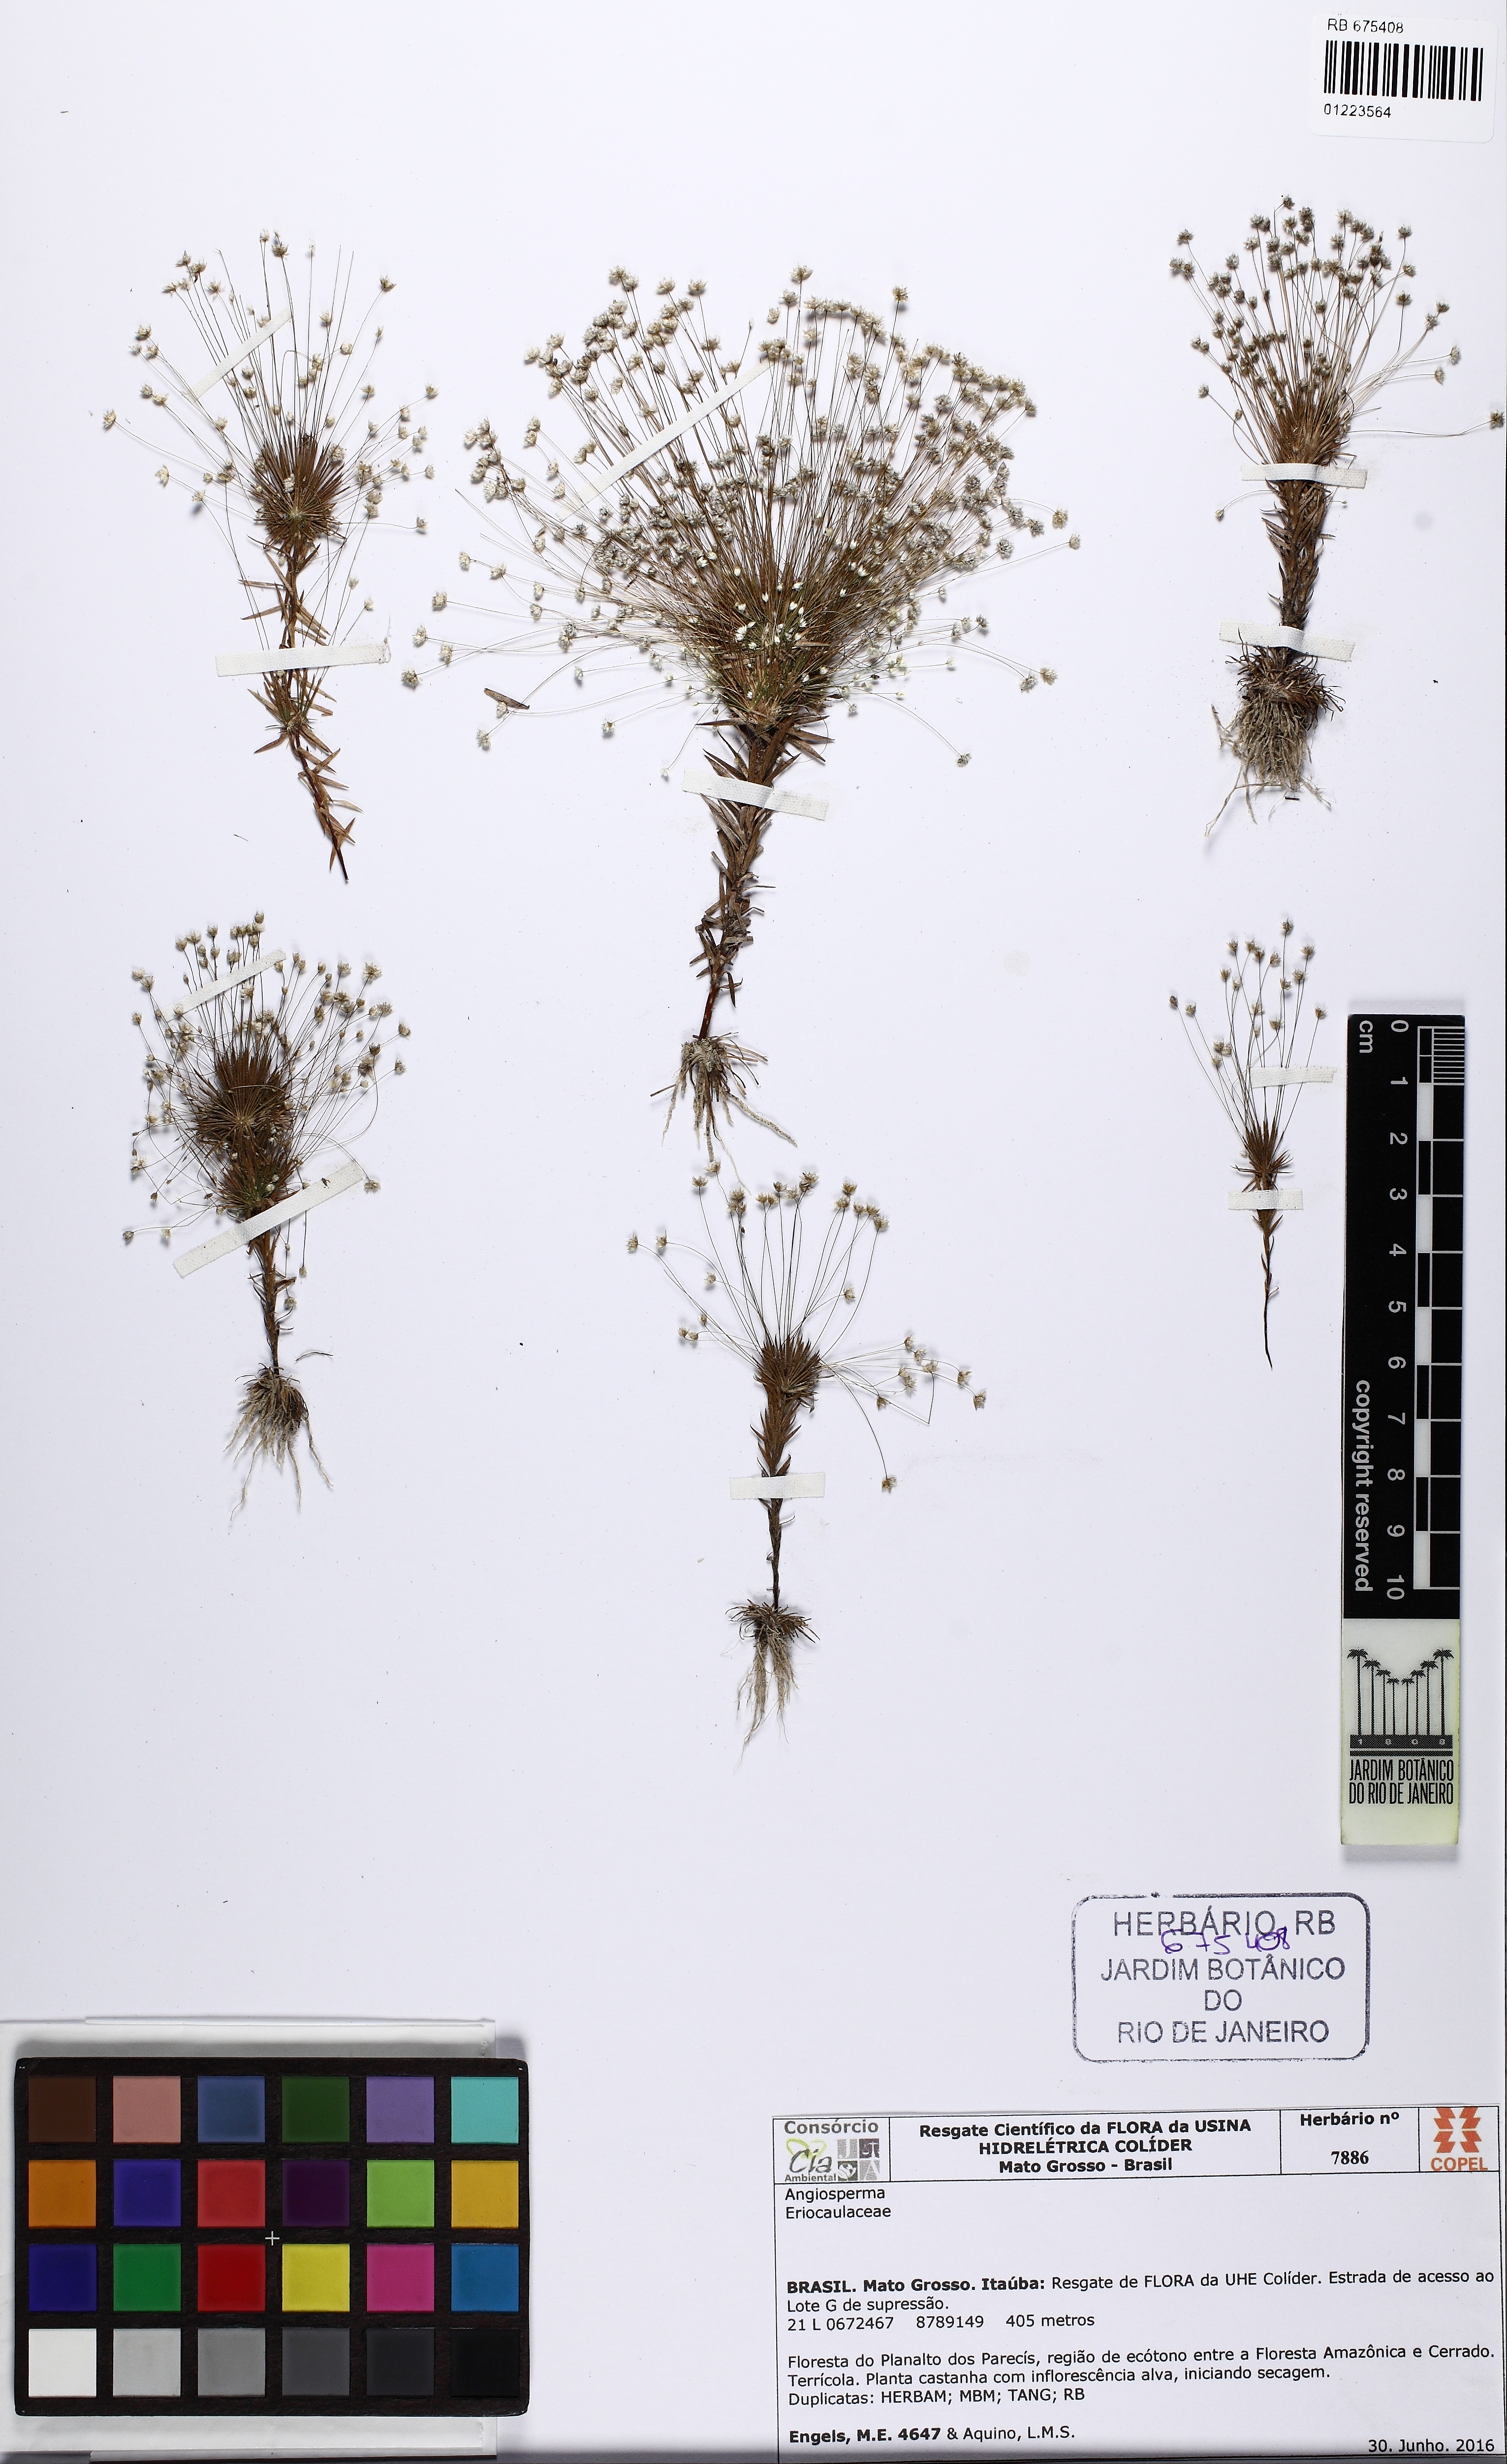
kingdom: Plantae
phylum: Tracheophyta
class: Liliopsida
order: Poales
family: Eriocaulaceae
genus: Syngonanthus
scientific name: Syngonanthus bisumbellatus
